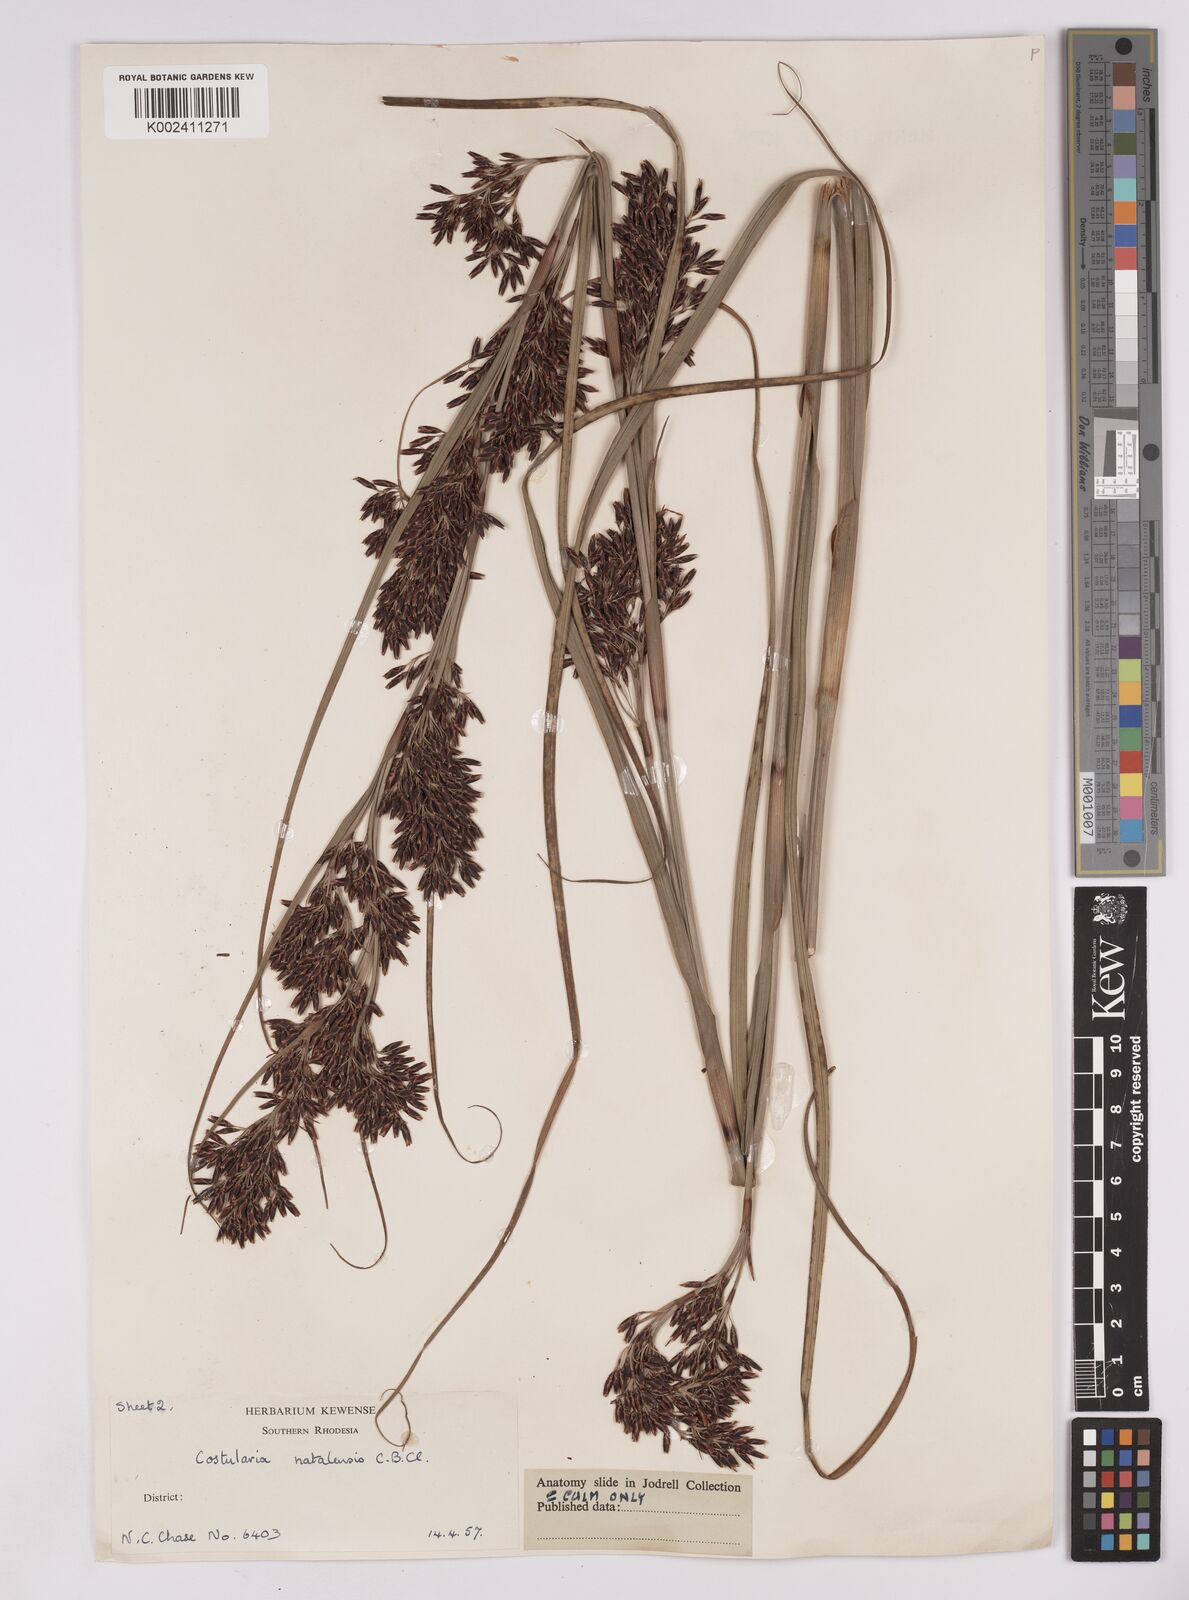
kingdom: Plantae
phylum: Tracheophyta
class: Liliopsida
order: Poales
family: Cyperaceae
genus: Costularia
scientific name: Costularia natalensis
